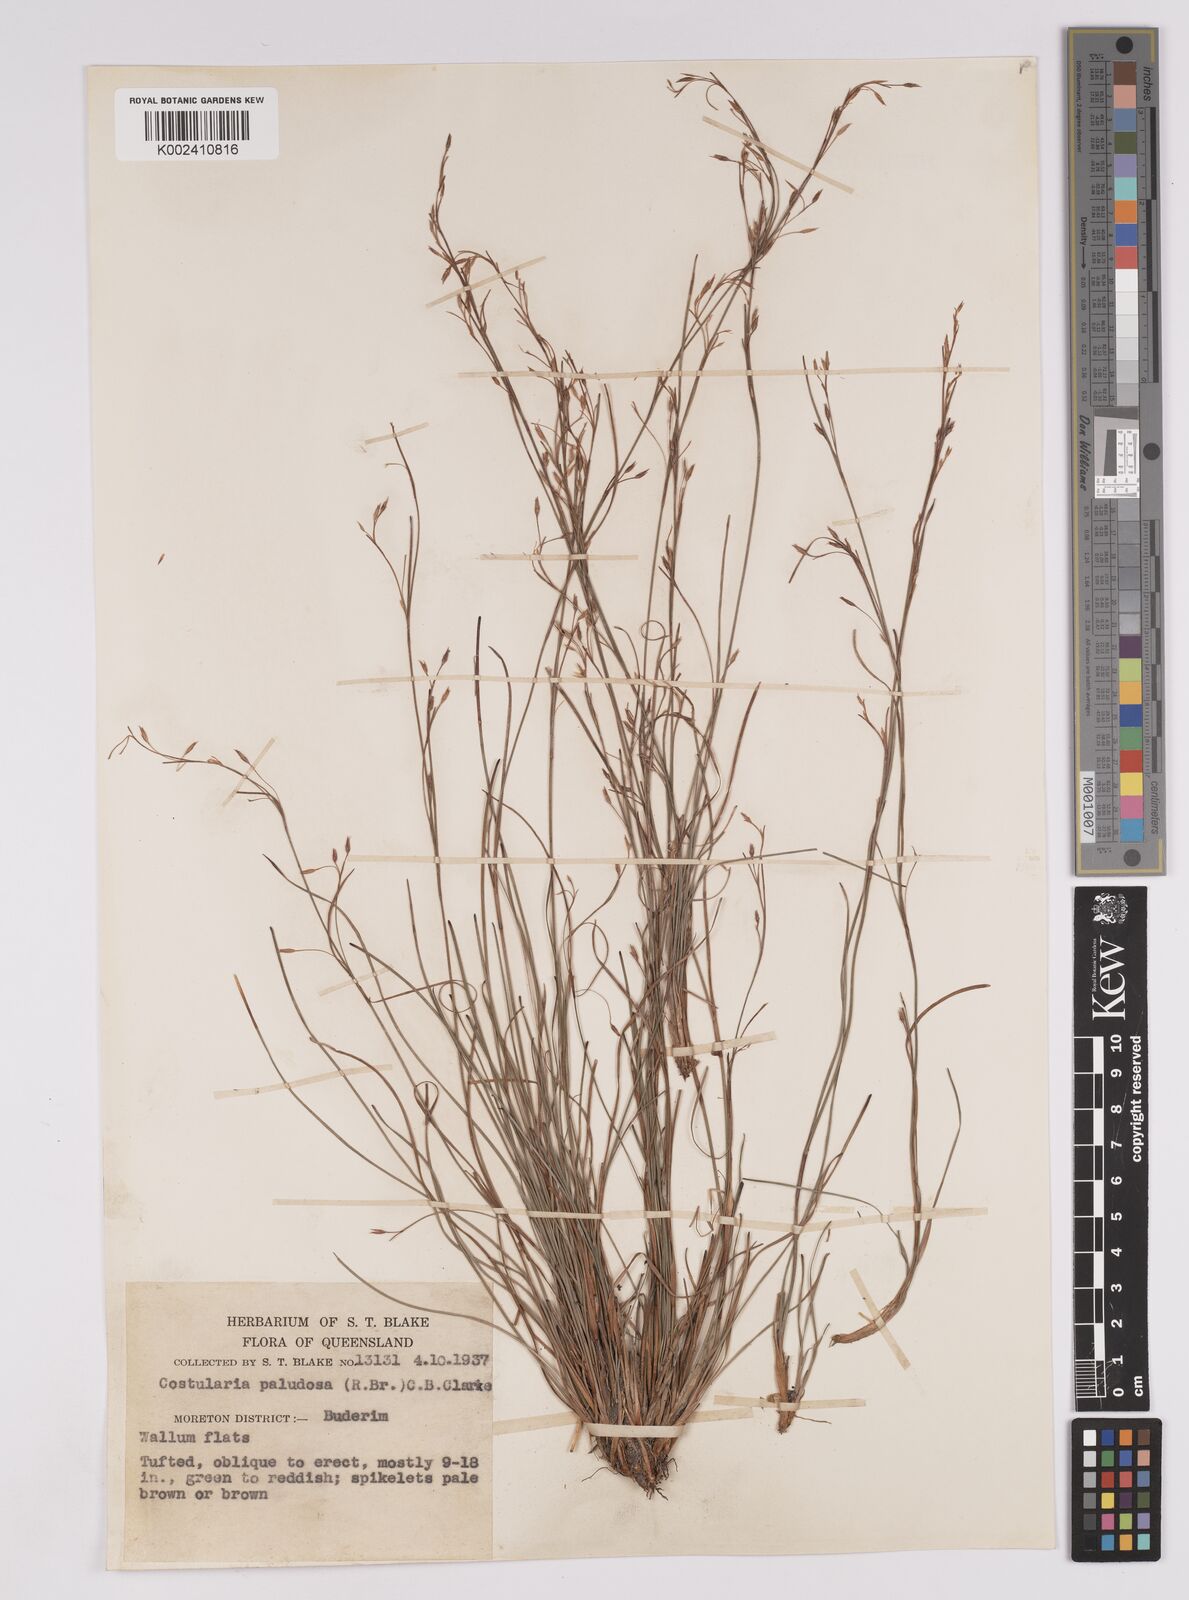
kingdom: Plantae
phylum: Tracheophyta
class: Liliopsida
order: Poales
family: Cyperaceae
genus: Anthelepis
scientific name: Anthelepis paludosa
